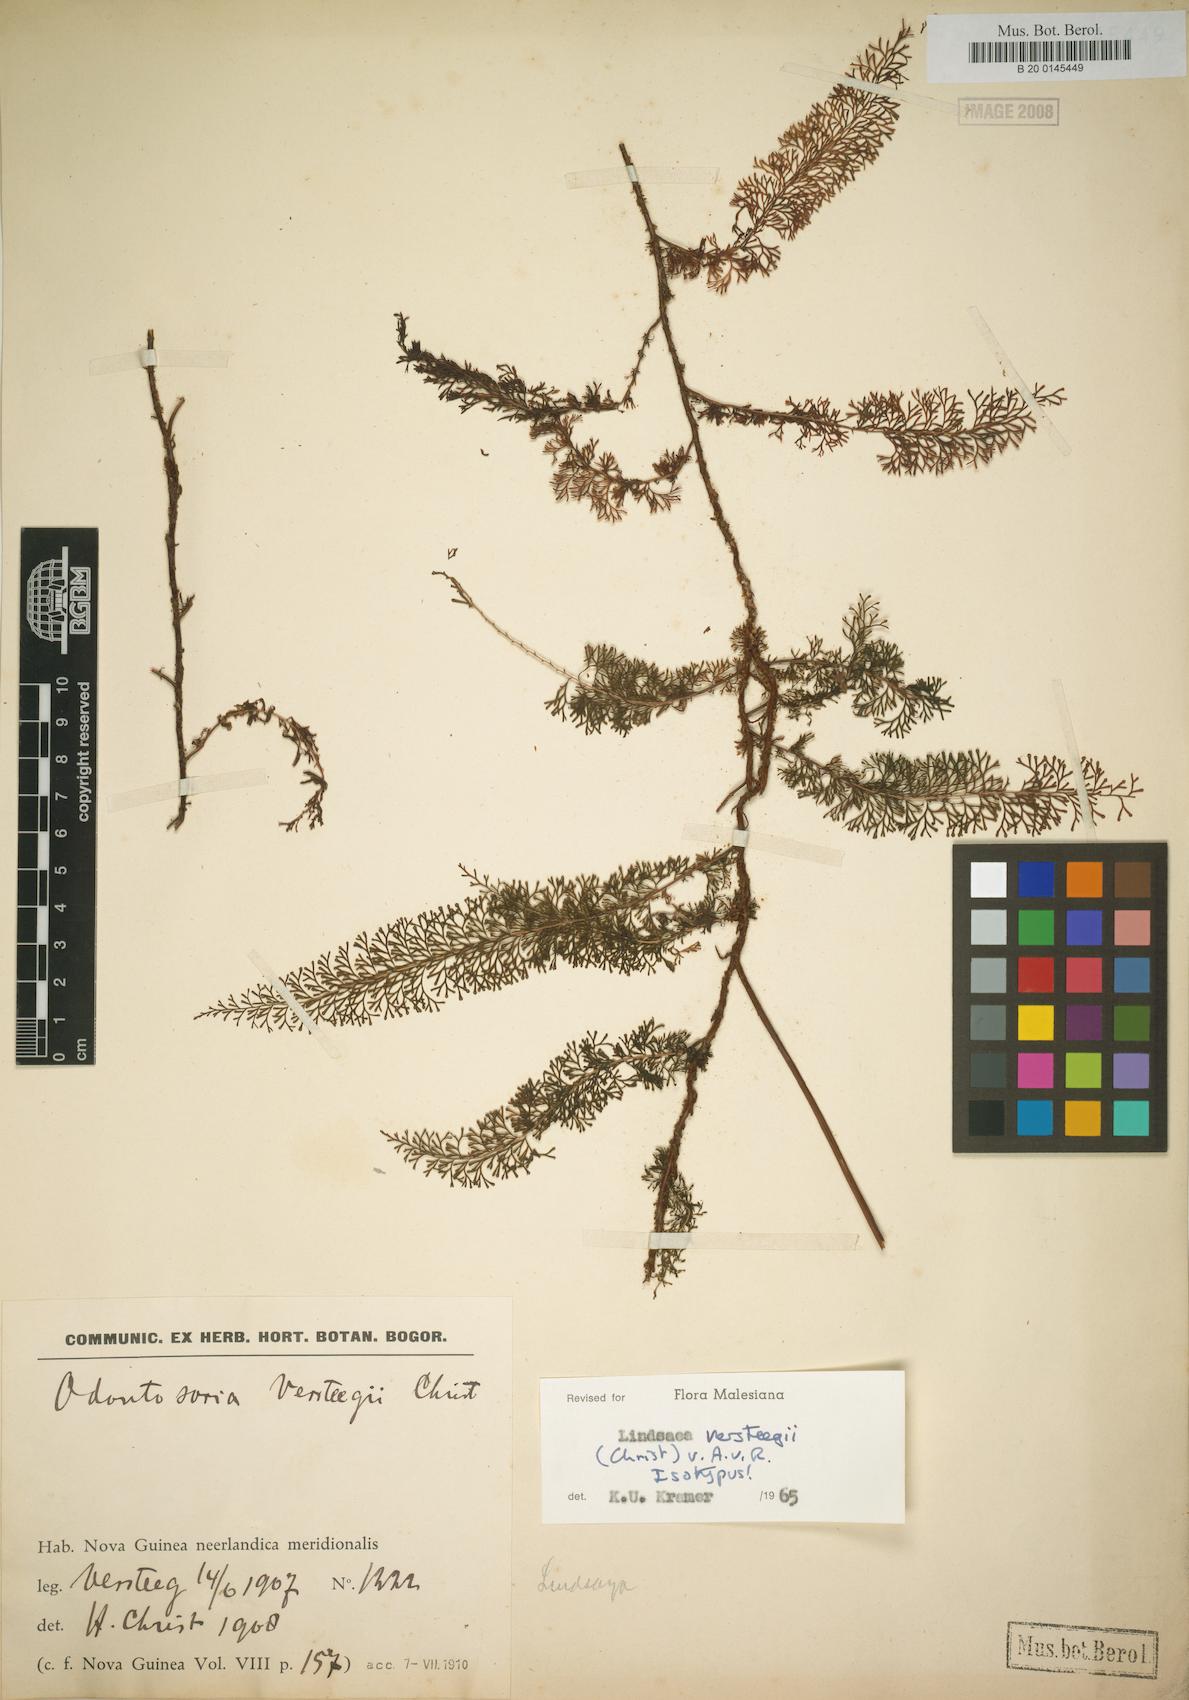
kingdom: Plantae
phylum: Tracheophyta
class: Polypodiopsida
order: Polypodiales
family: Lindsaeaceae
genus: Lindsaea
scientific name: Lindsaea versteegii
